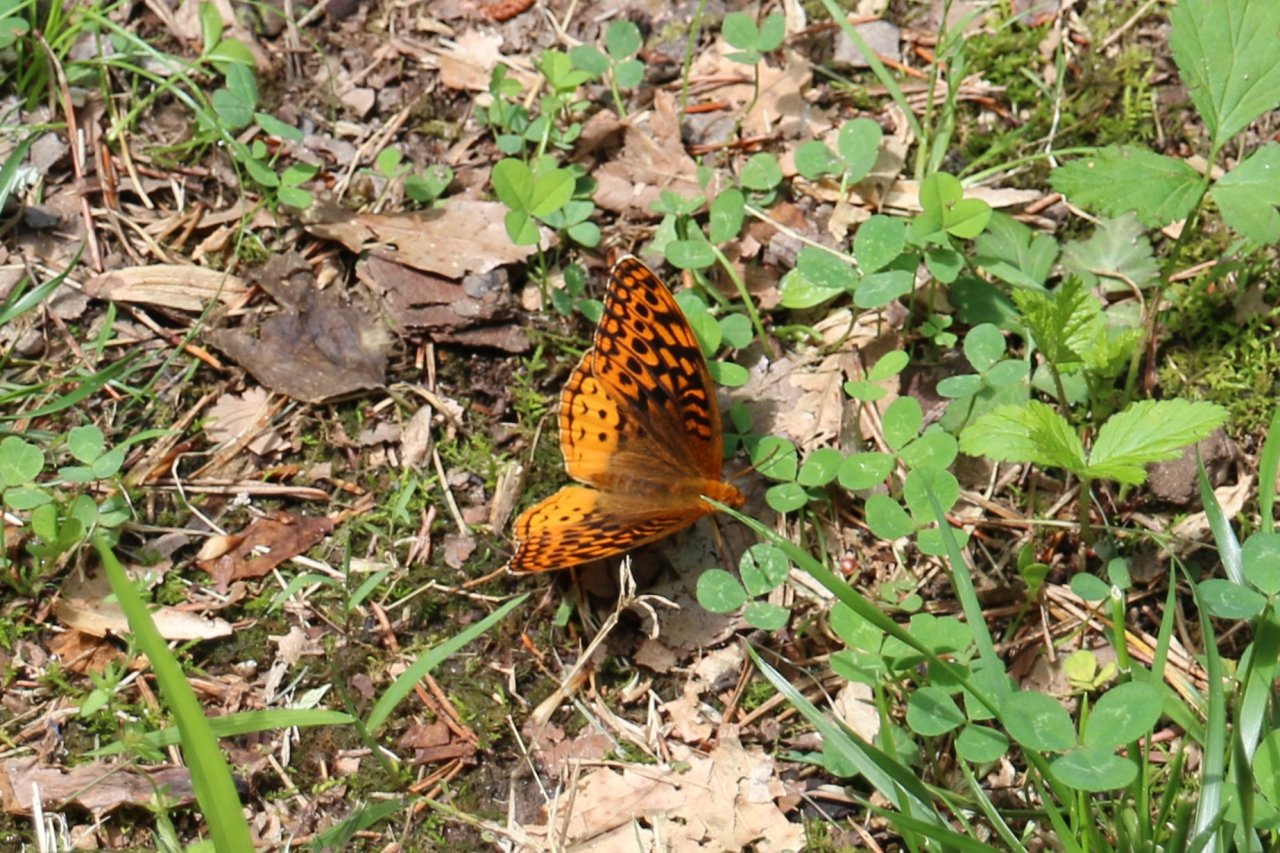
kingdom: Animalia
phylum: Arthropoda
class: Insecta
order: Lepidoptera
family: Nymphalidae
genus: Speyeria
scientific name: Speyeria cybele
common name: Great Spangled Fritillary
